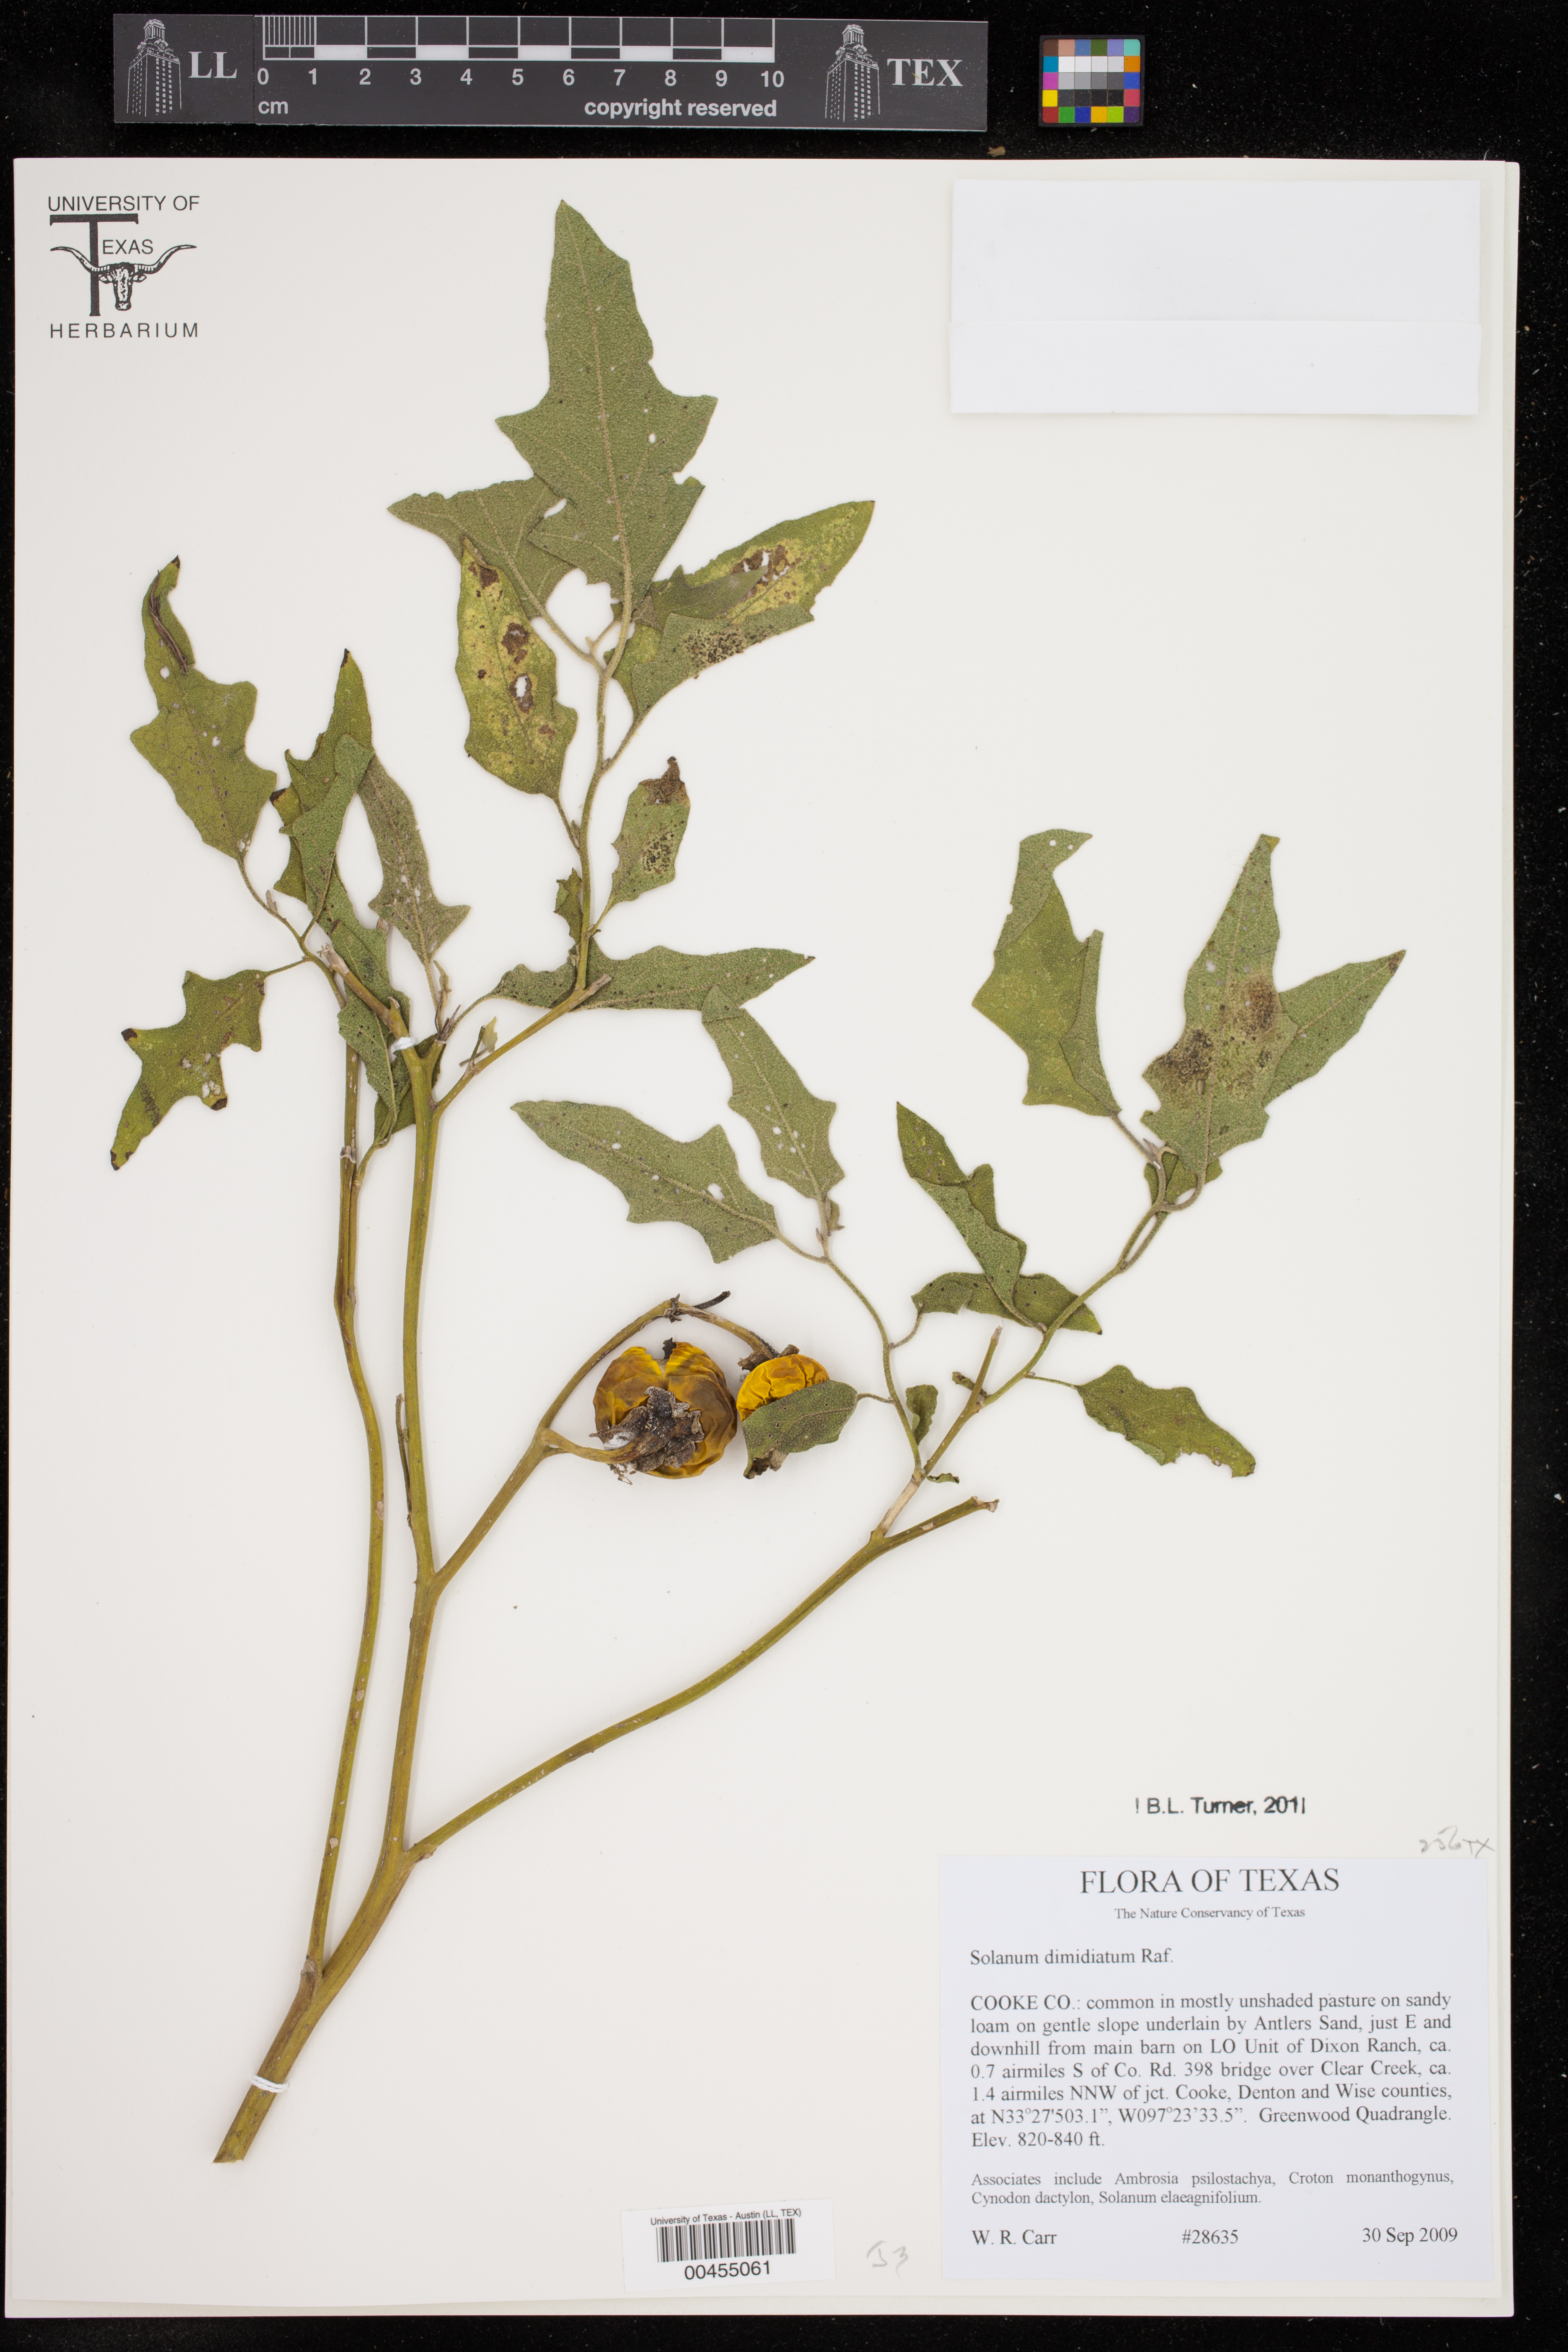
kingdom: Plantae
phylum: Tracheophyta
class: Magnoliopsida
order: Solanales
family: Solanaceae
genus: Solanum
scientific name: Solanum dimidiatum
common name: Carolina horse-nettle
